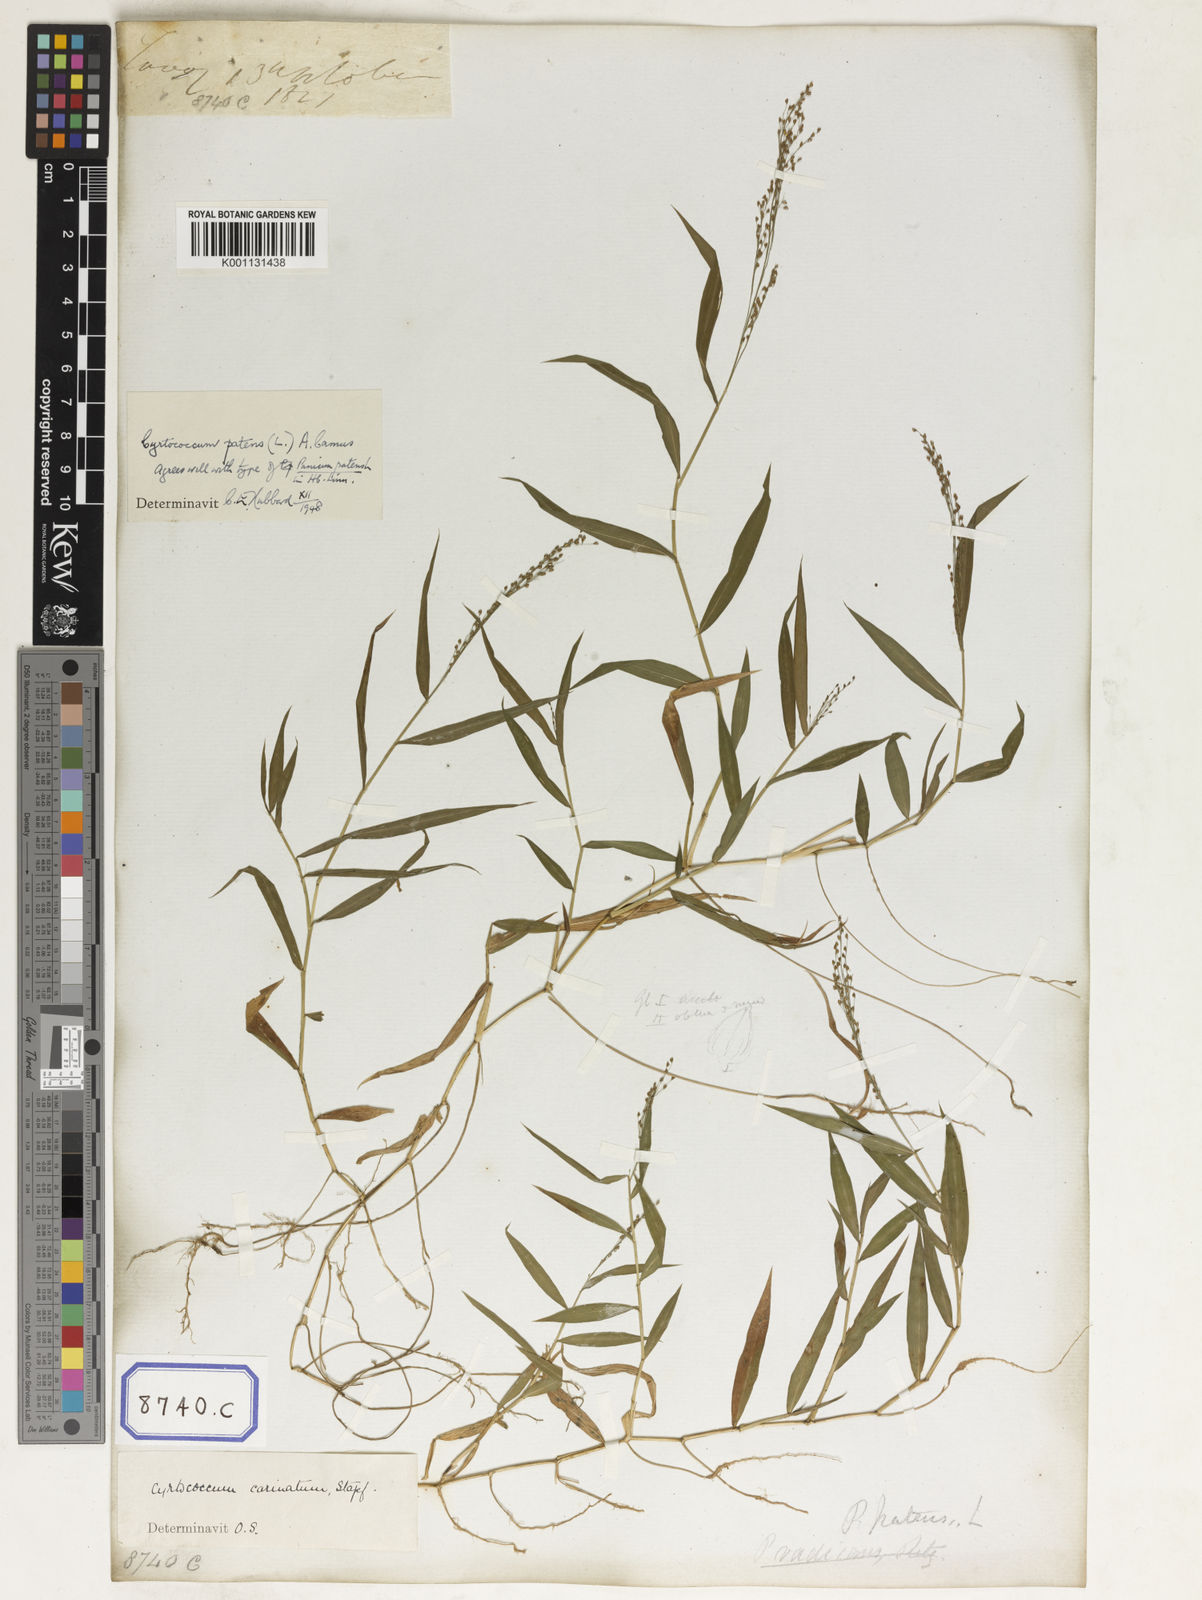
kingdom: Plantae
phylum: Tracheophyta
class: Liliopsida
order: Poales
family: Poaceae
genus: Panicum
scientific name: Panicum
